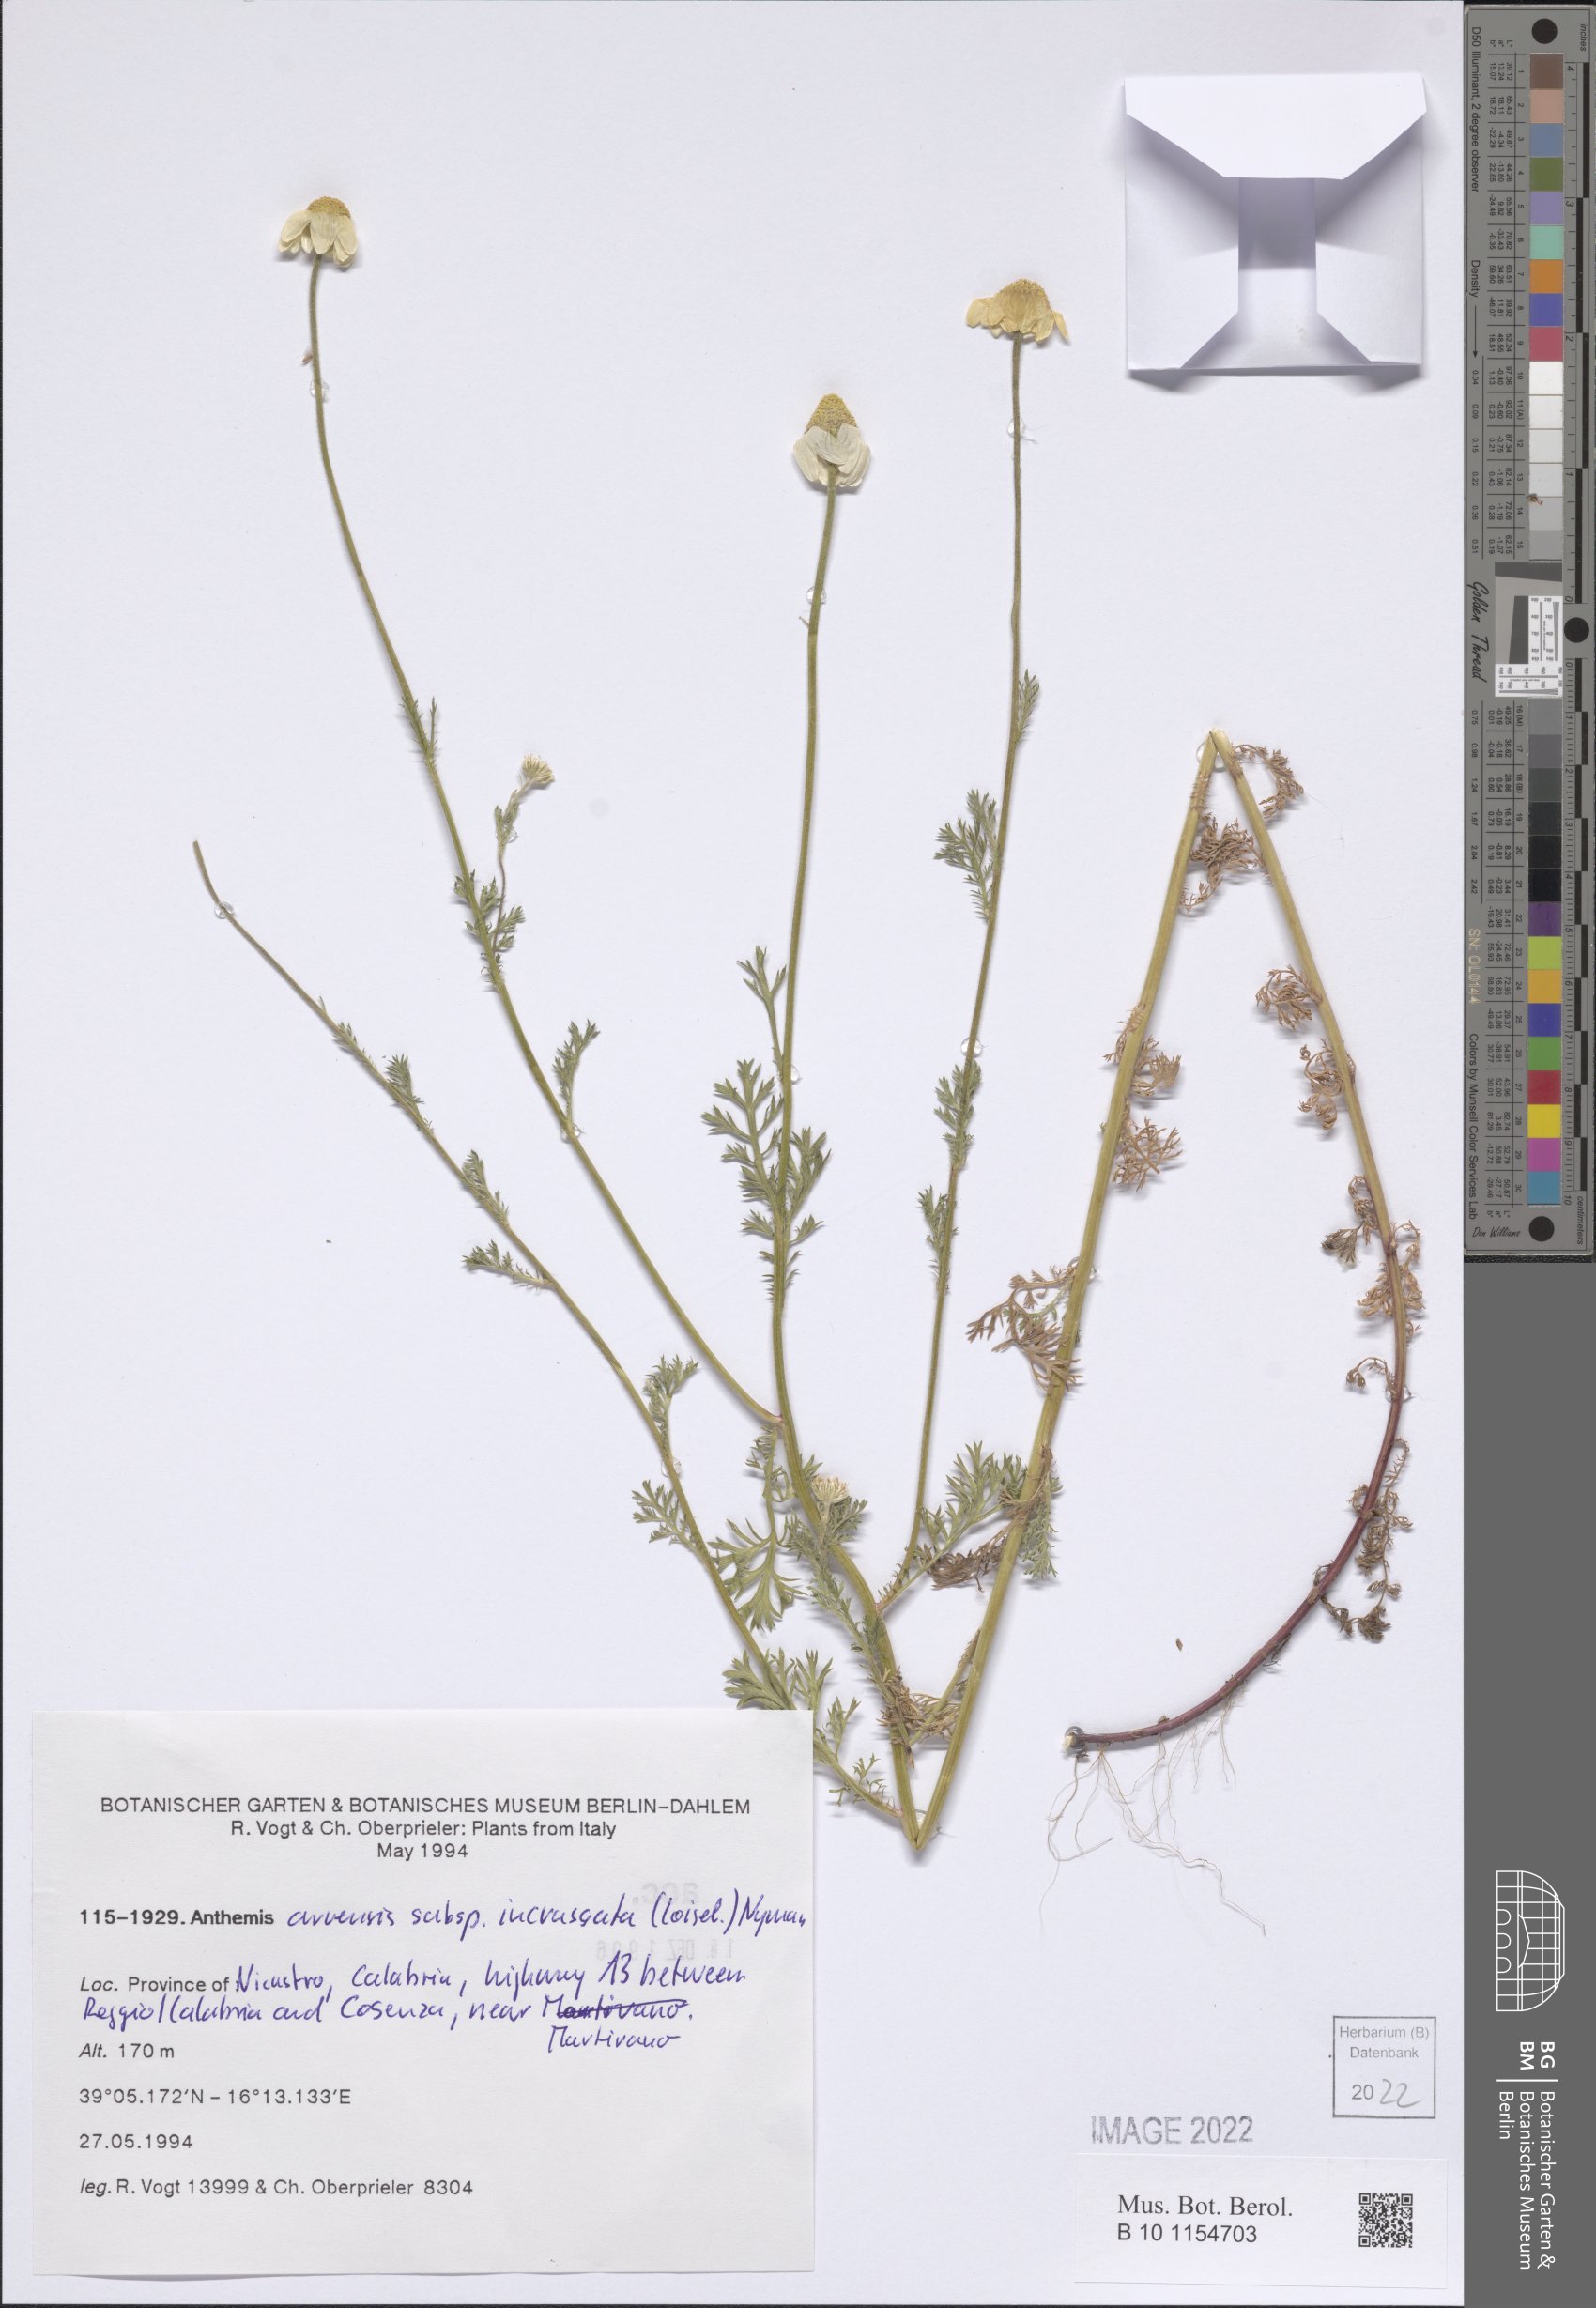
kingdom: Plantae
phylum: Tracheophyta
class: Magnoliopsida
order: Asterales
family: Asteraceae
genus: Anthemis
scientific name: Anthemis arvensis
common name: Corn chamomile
